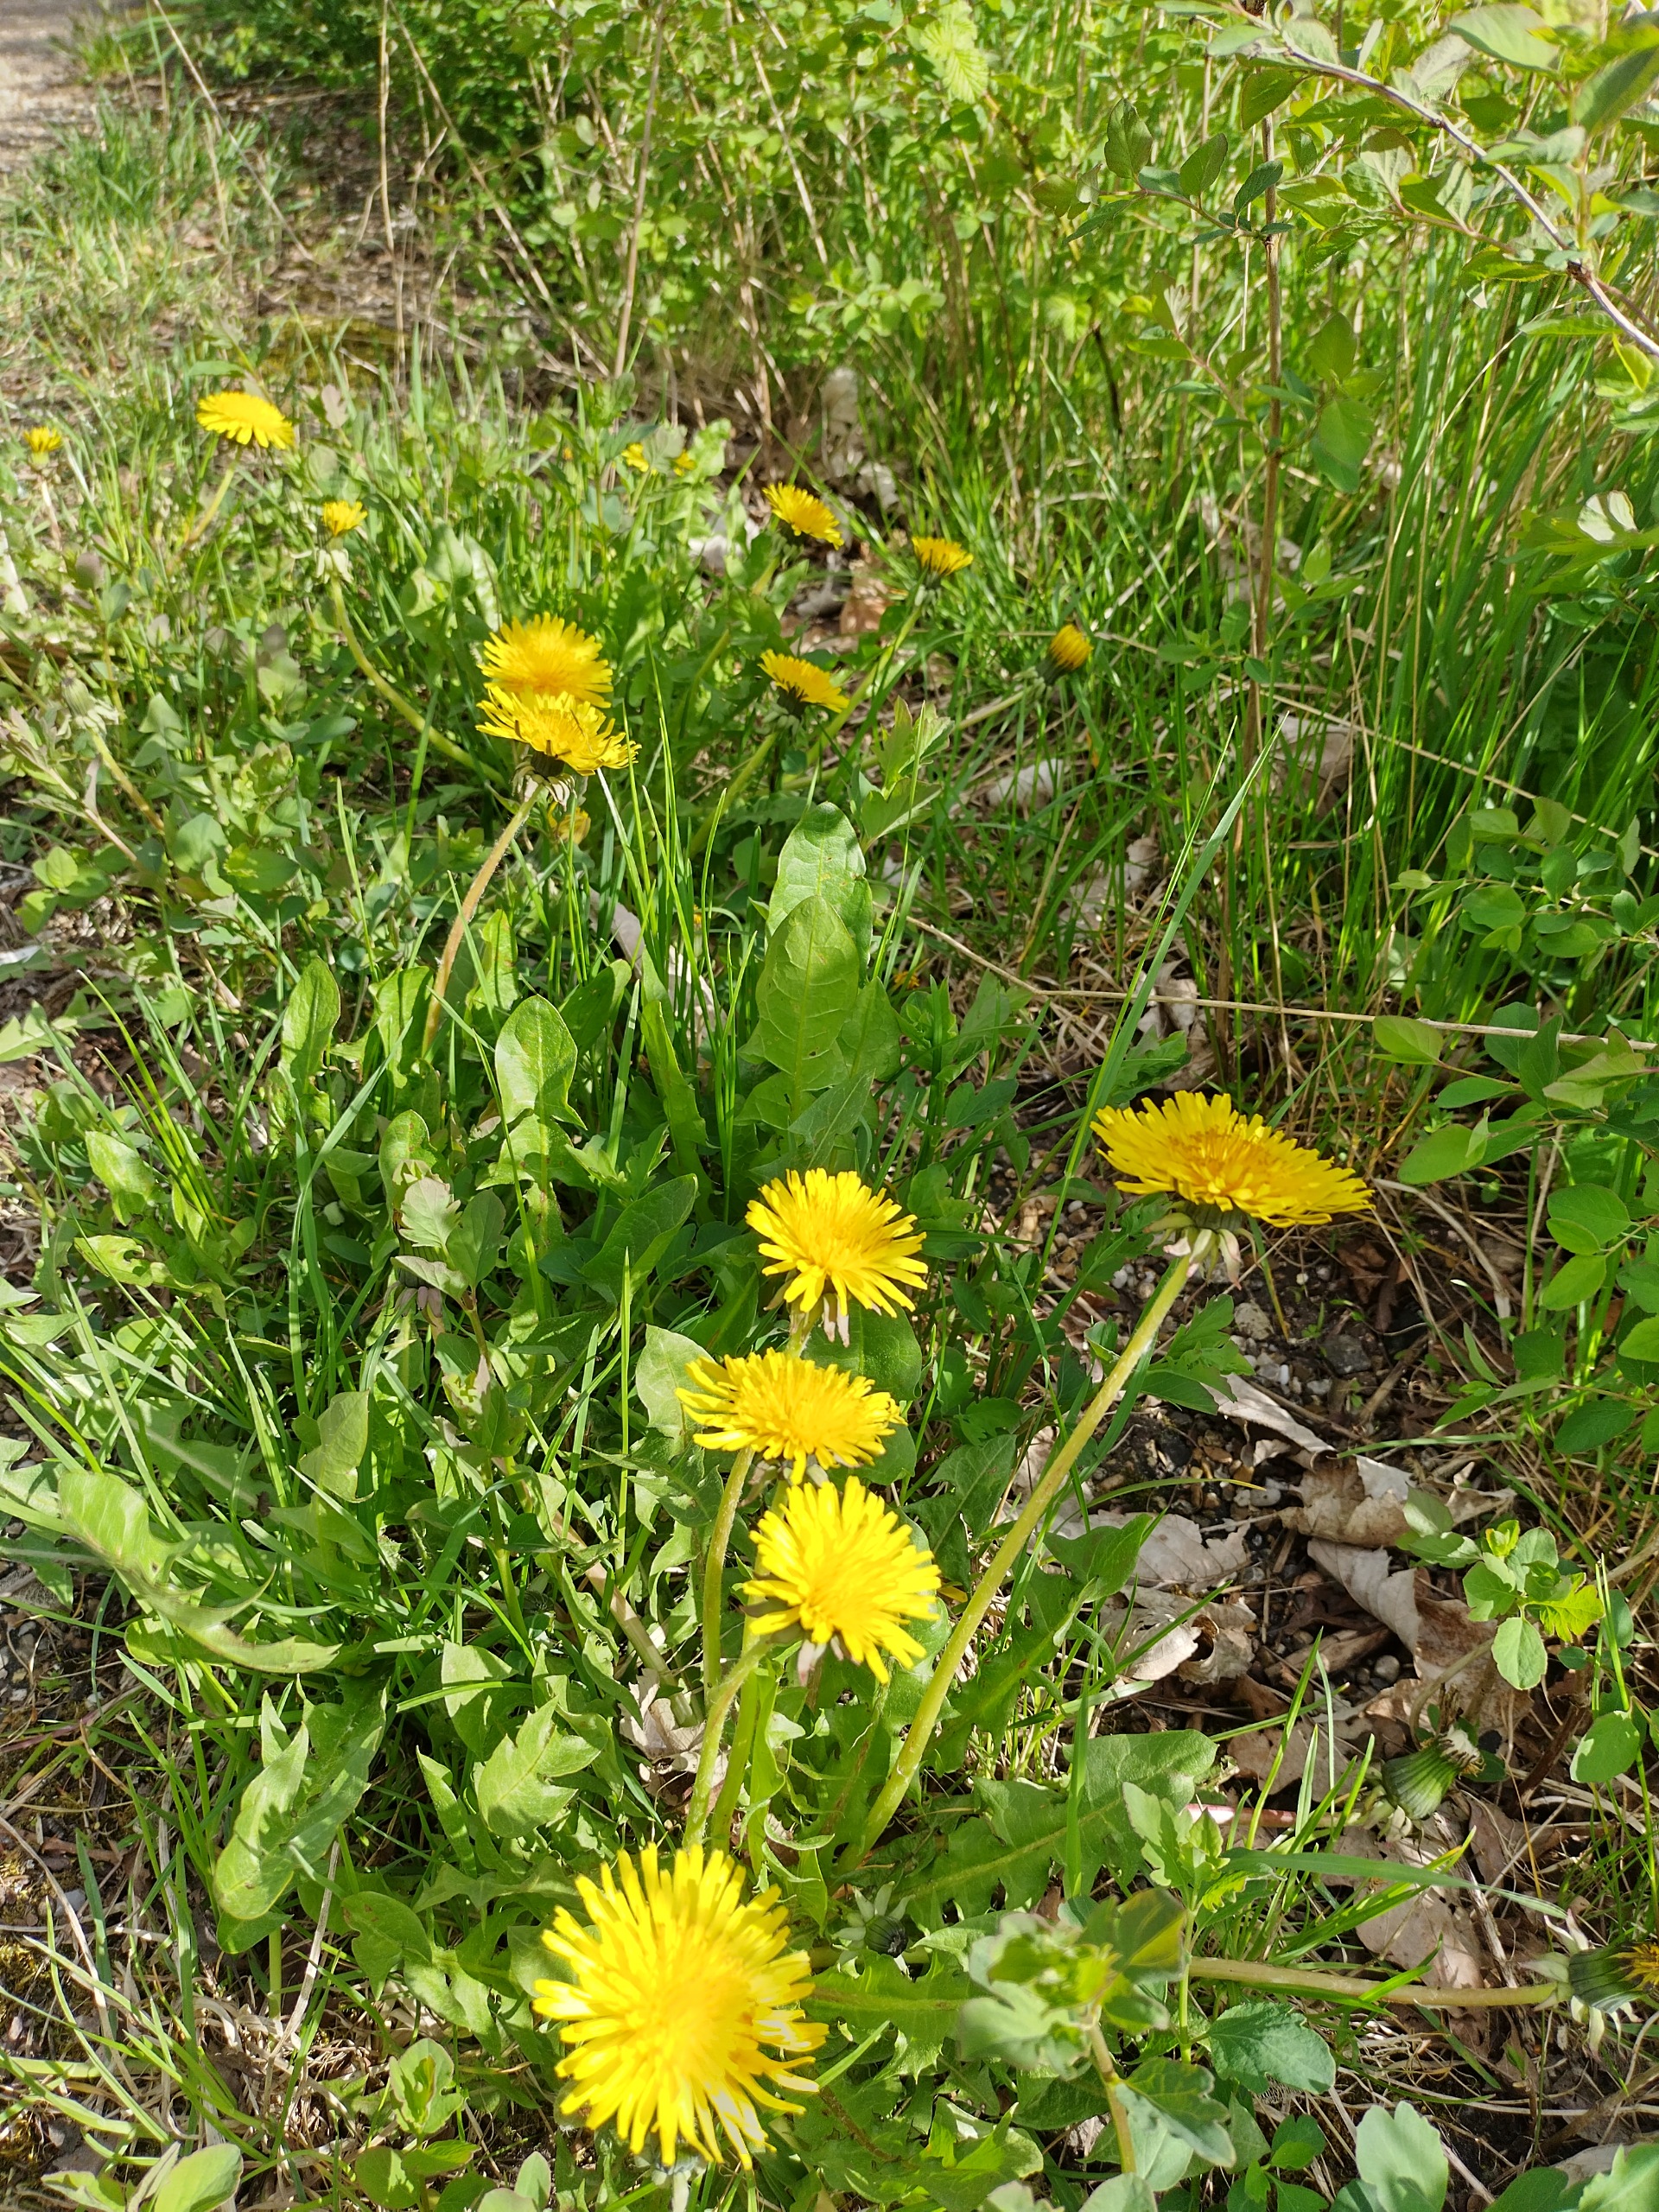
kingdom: Plantae
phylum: Tracheophyta
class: Magnoliopsida
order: Asterales
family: Asteraceae
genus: Taraxacum
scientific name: Taraxacum
